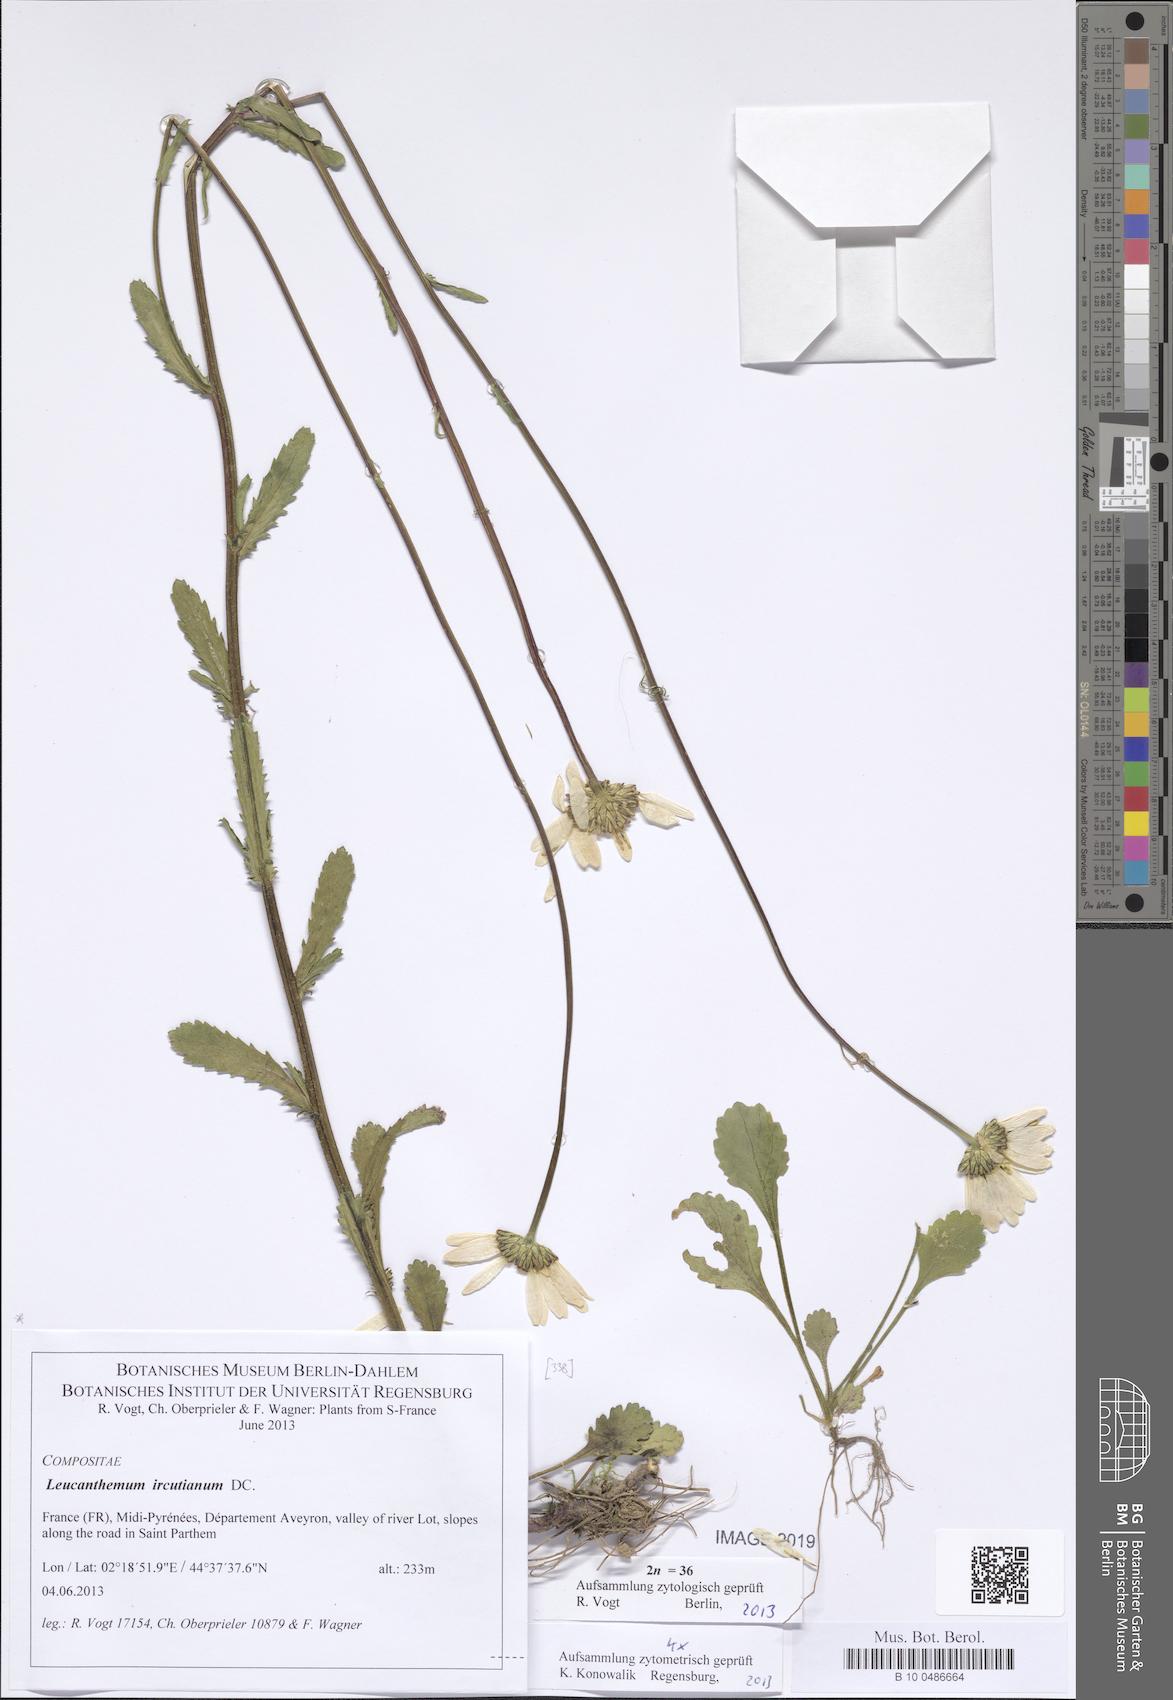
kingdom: Plantae
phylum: Tracheophyta
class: Magnoliopsida
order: Asterales
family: Asteraceae
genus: Leucanthemum
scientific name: Leucanthemum ircutianum
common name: Daisy
